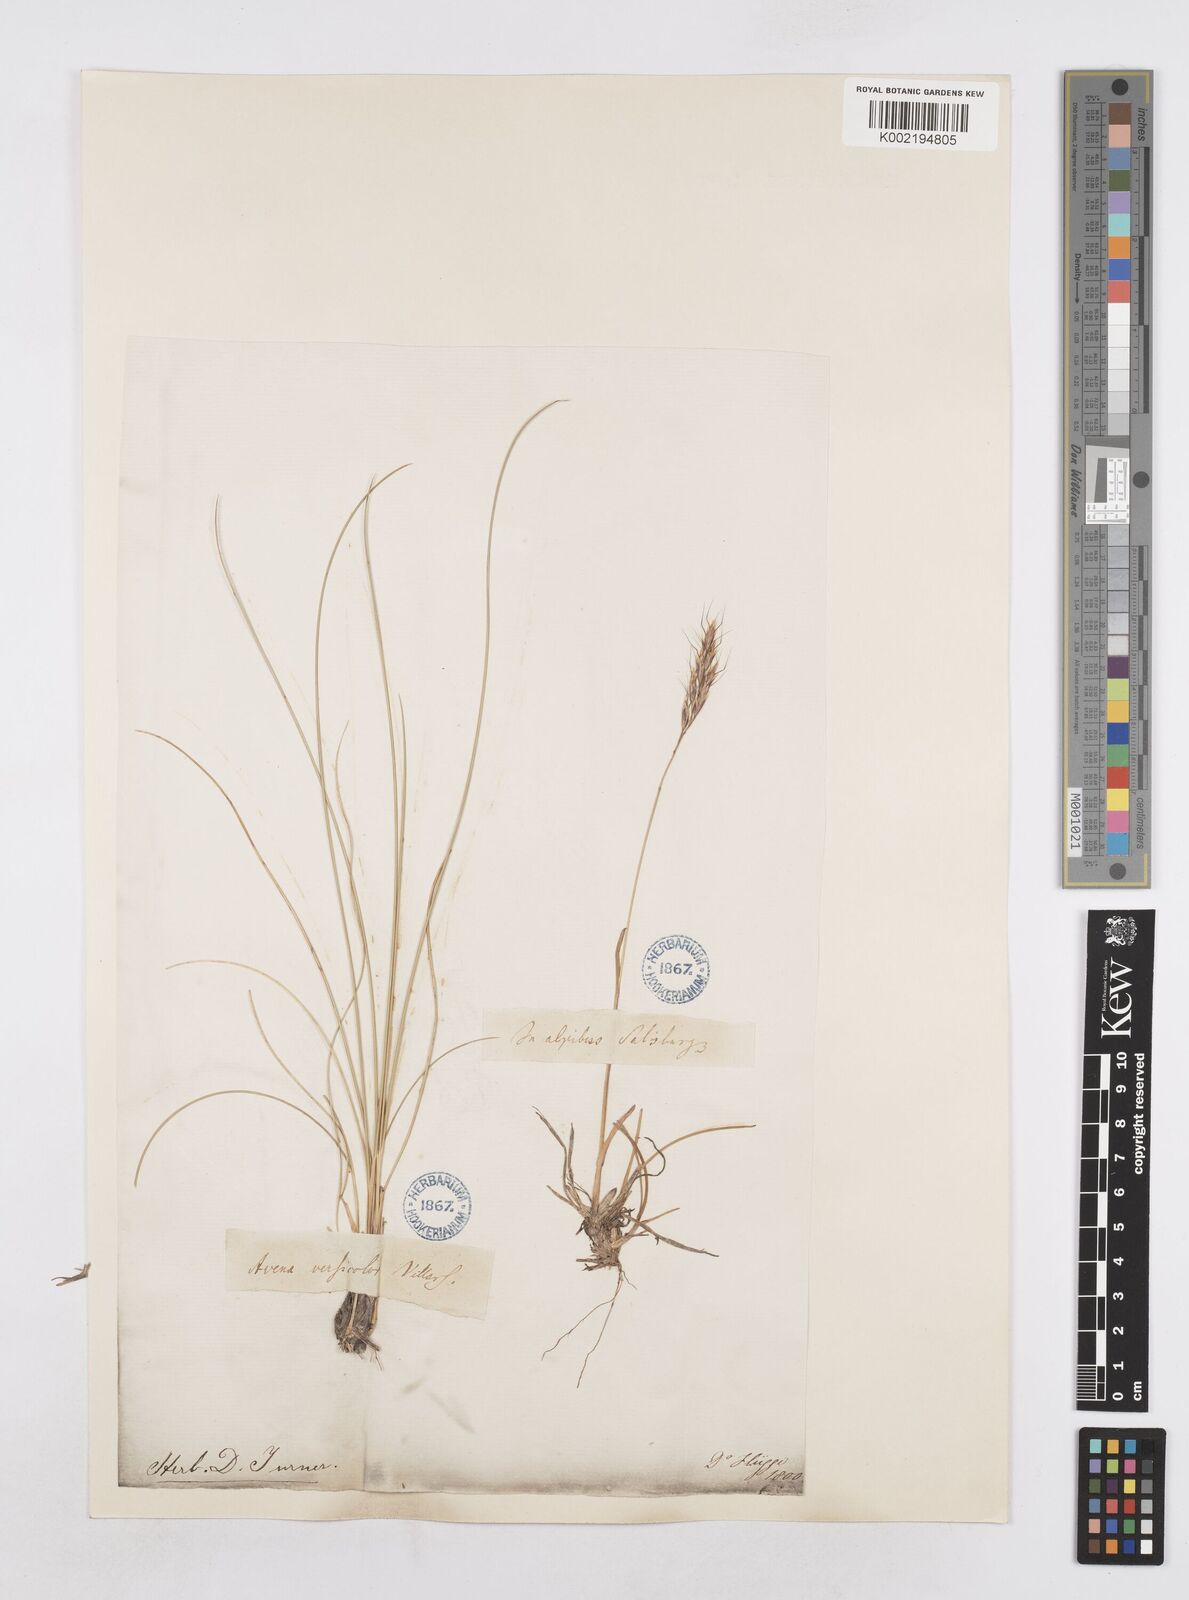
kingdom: Plantae
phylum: Tracheophyta
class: Liliopsida
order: Poales
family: Poaceae
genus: Helictochloa
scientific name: Helictochloa versicolor
